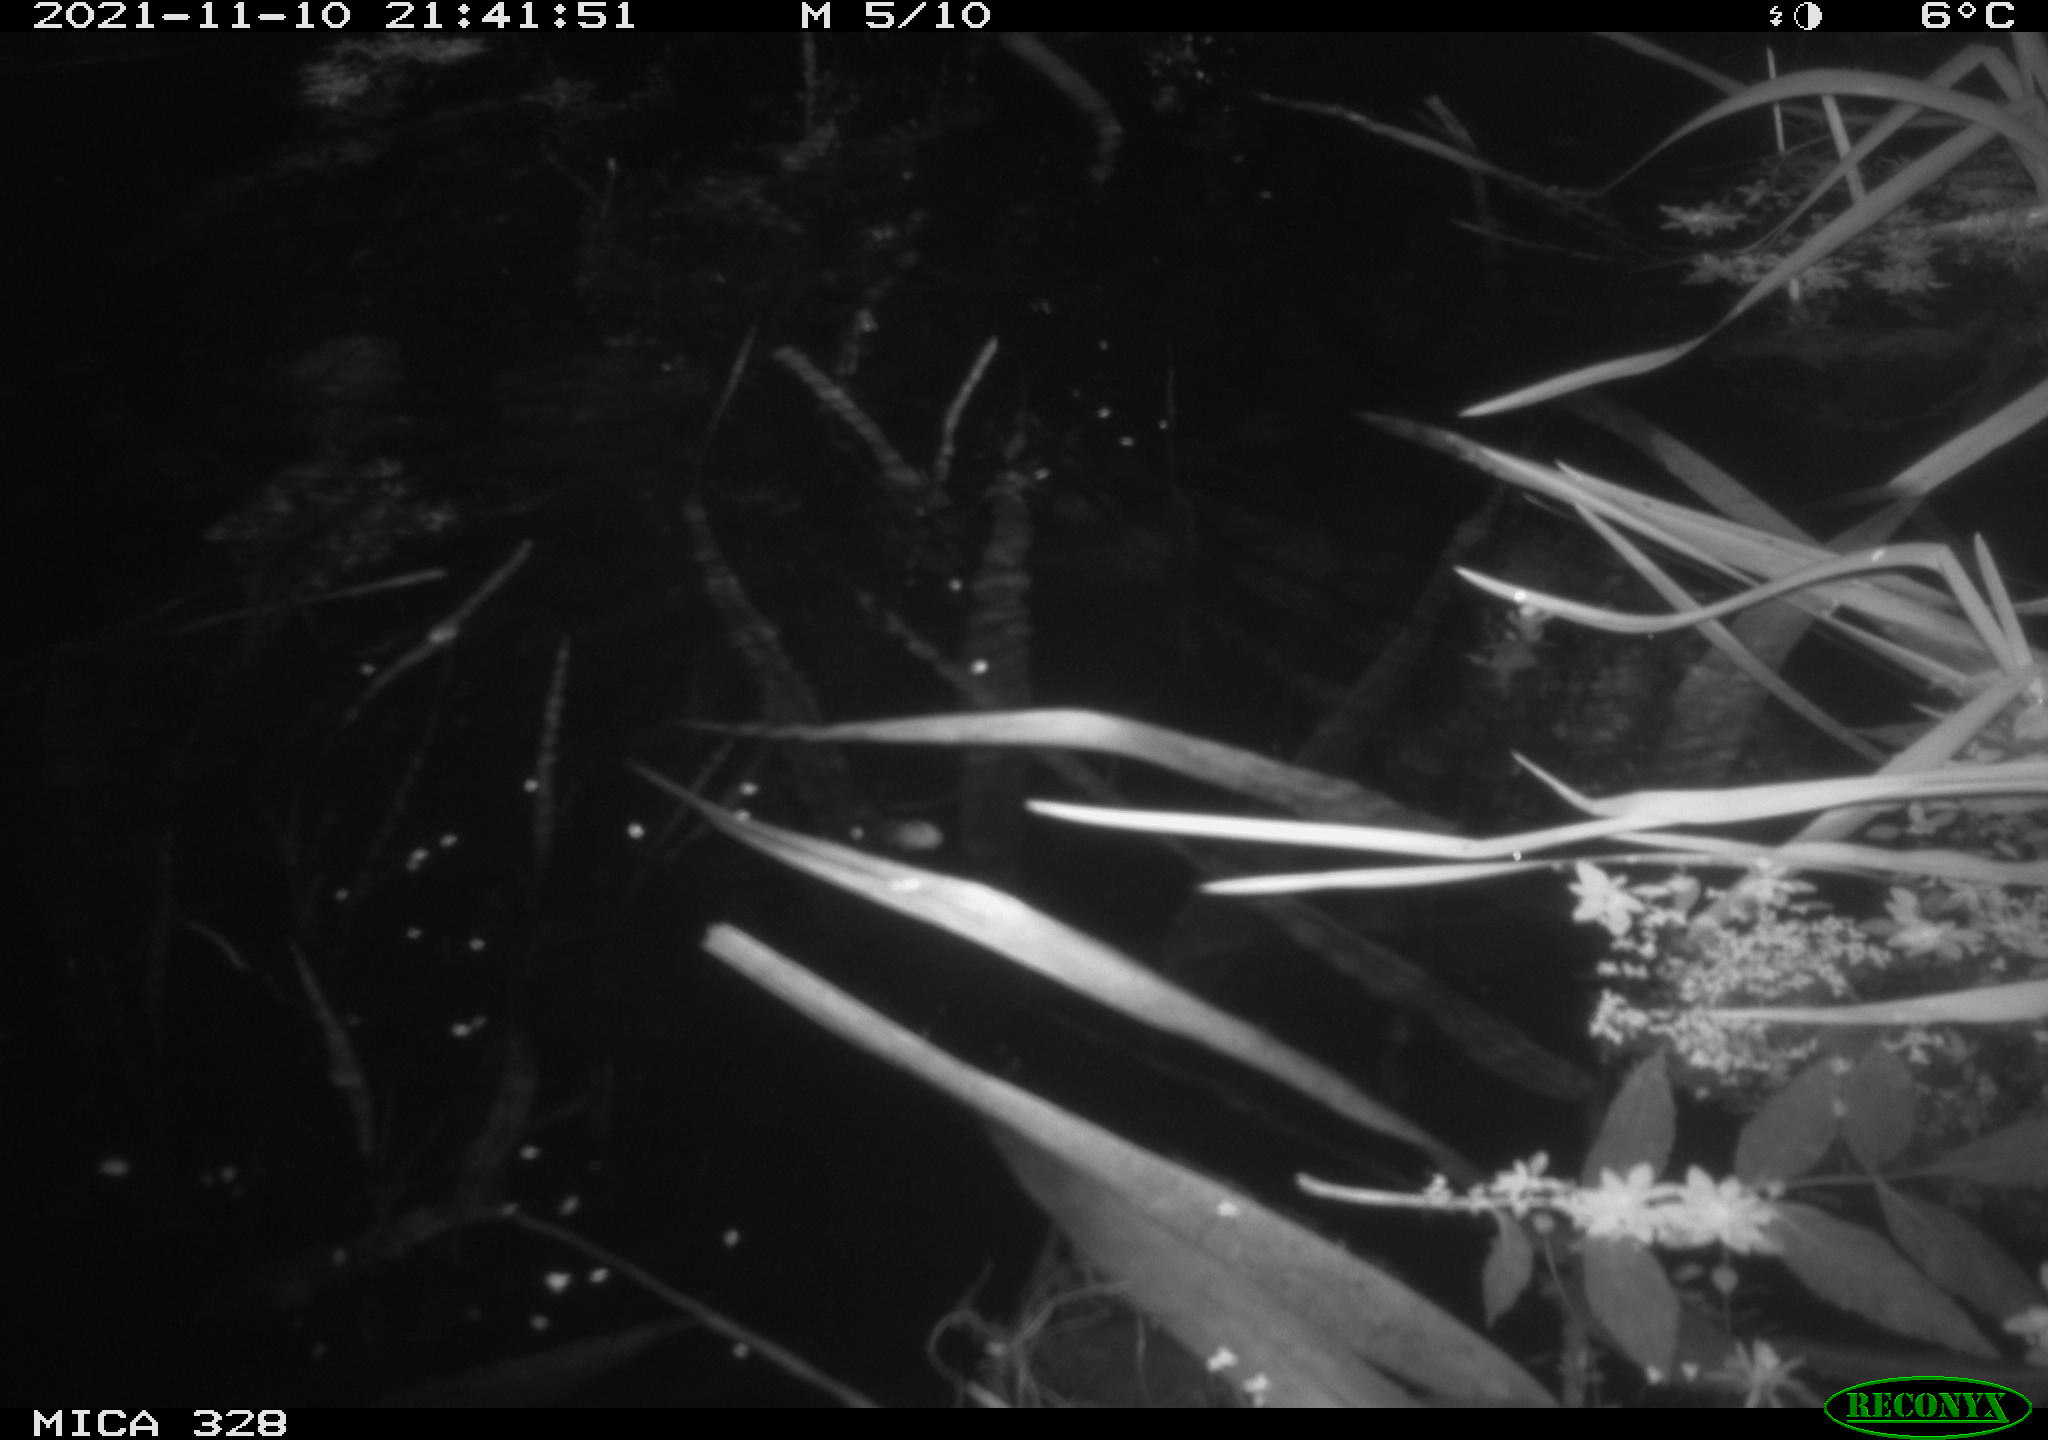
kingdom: Animalia
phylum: Chordata
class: Mammalia
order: Rodentia
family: Cricetidae
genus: Ondatra
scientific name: Ondatra zibethicus
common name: Muskrat
